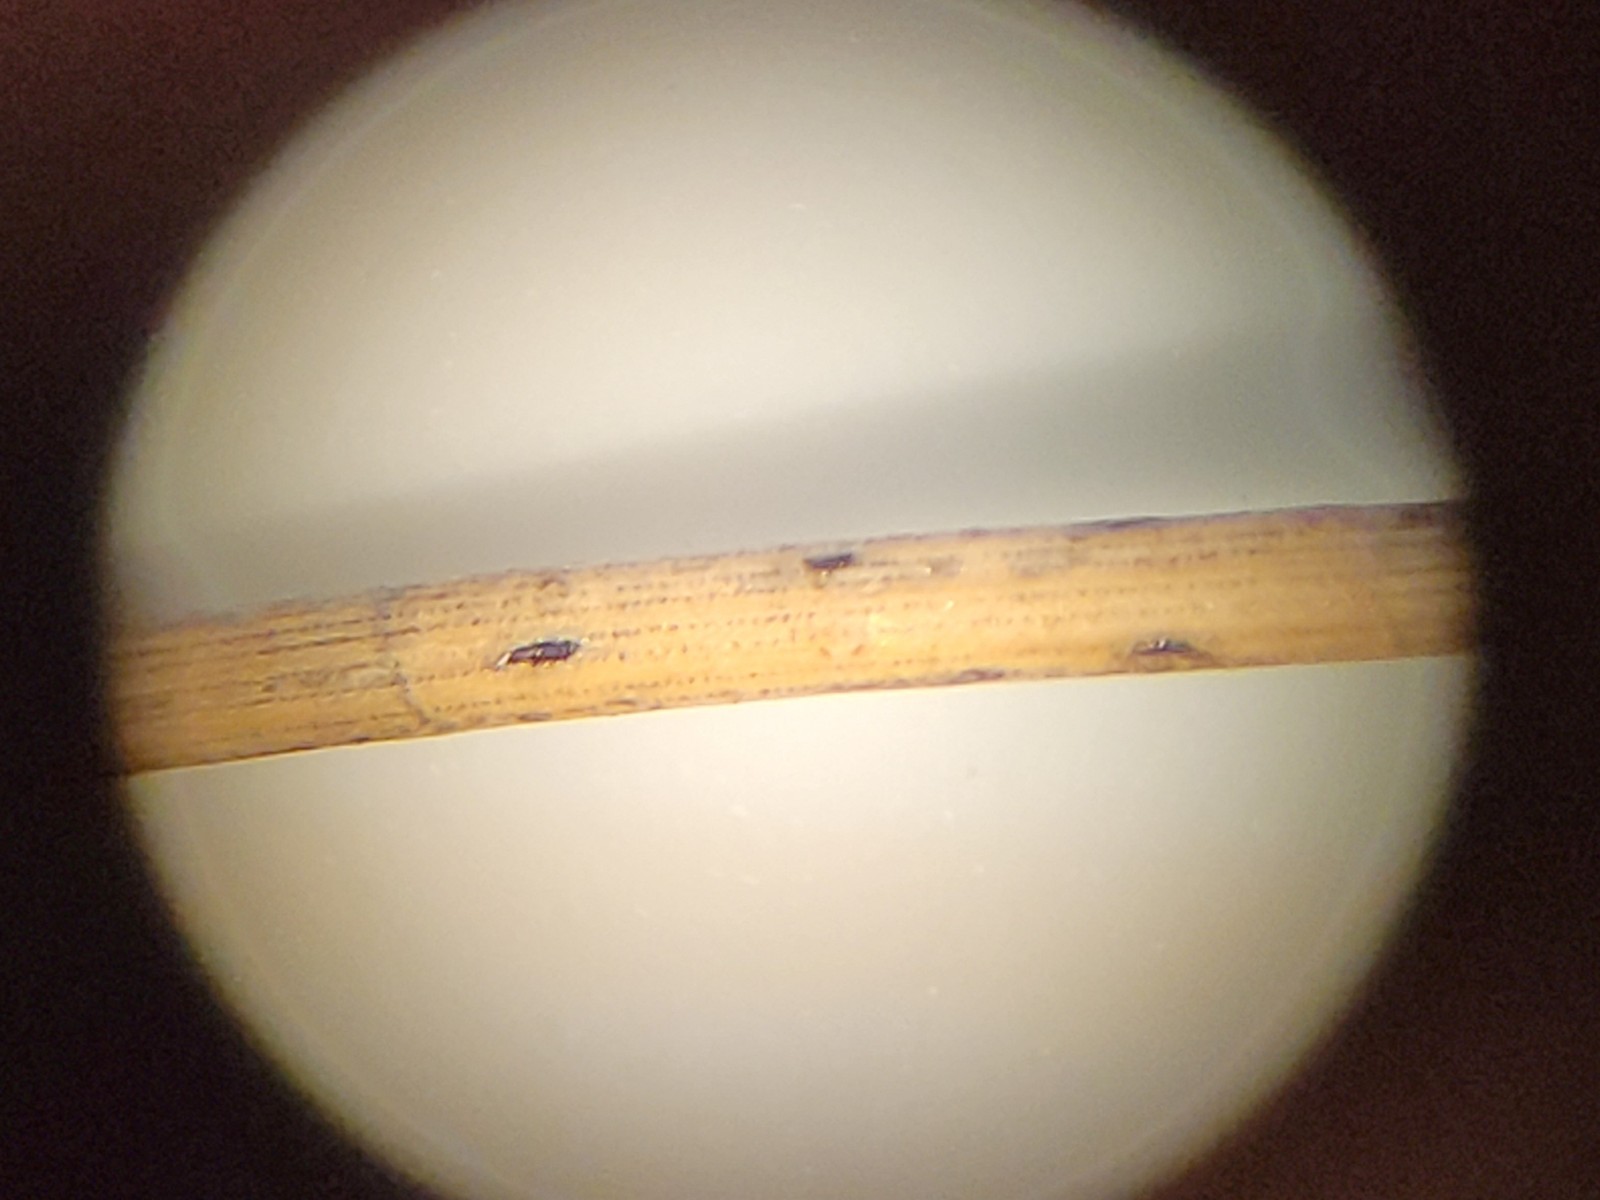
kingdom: Fungi
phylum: Ascomycota
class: Leotiomycetes
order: Rhytismatales
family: Rhytismataceae
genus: Lophodermium
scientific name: Lophodermium pinastri
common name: fyrre-fureplet
